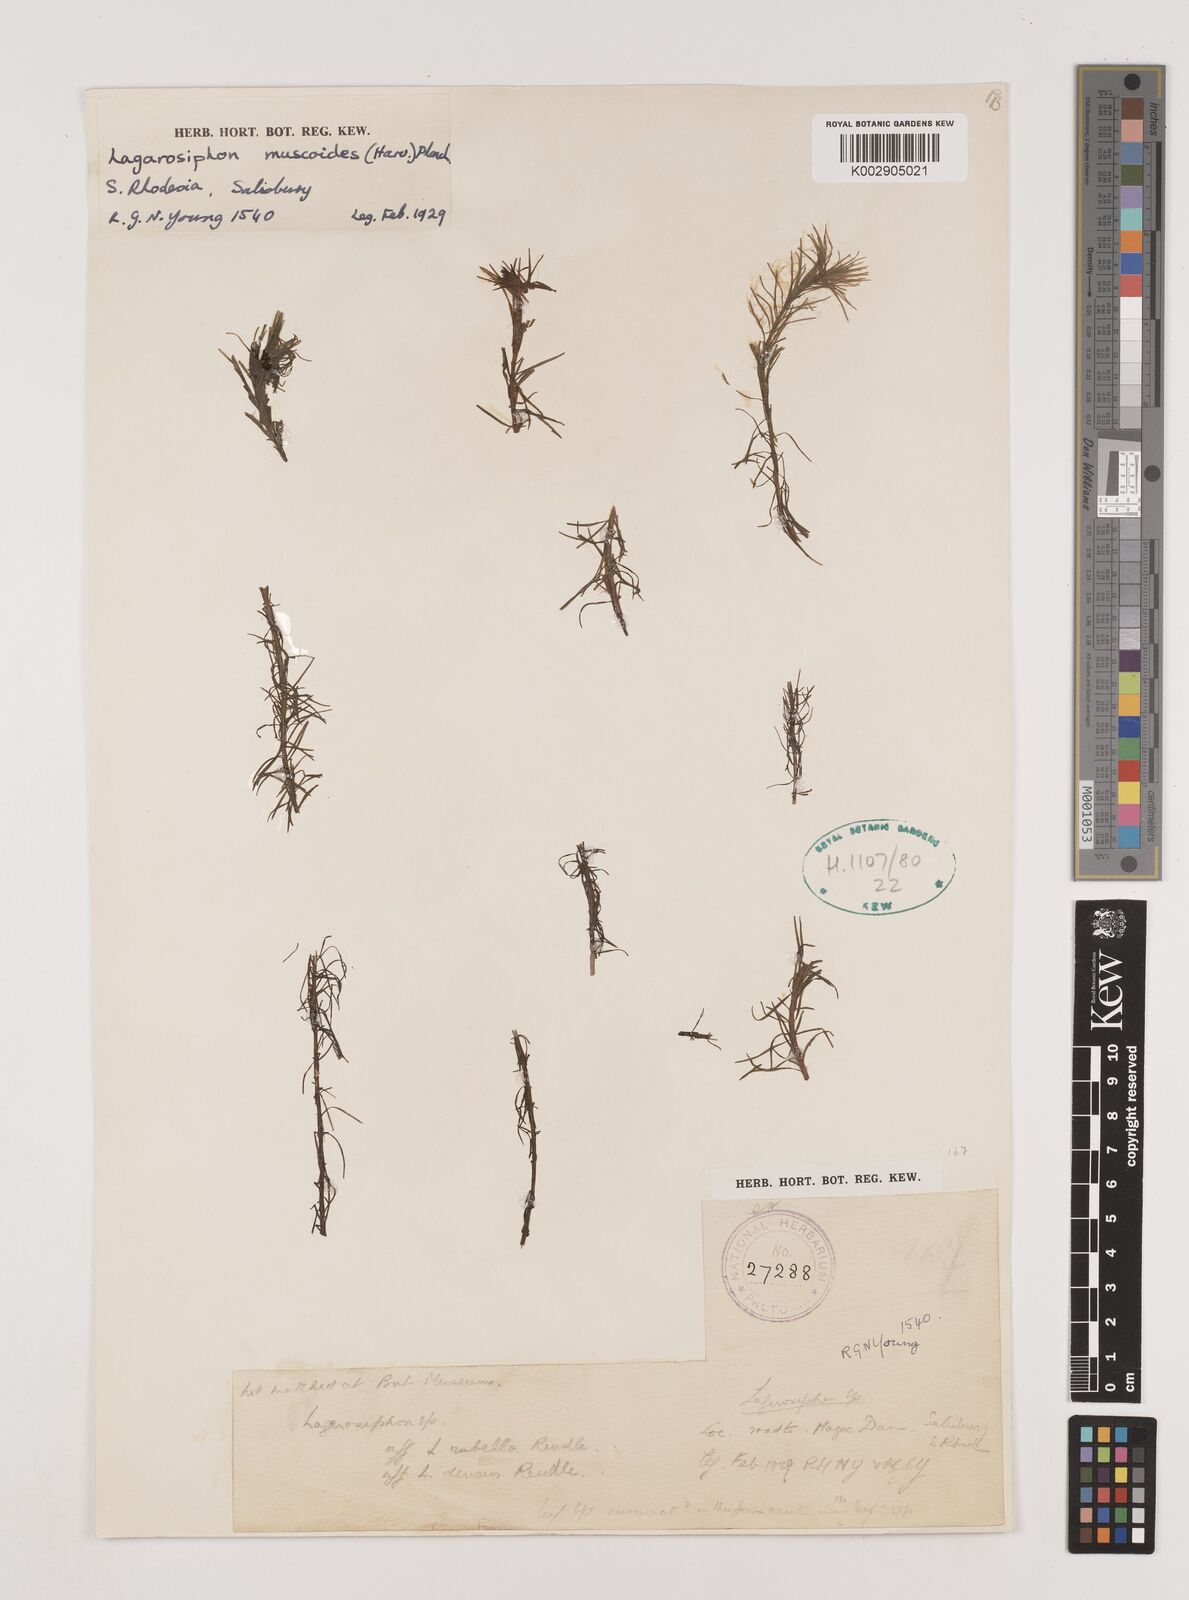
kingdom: Plantae
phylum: Tracheophyta
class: Liliopsida
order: Alismatales
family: Hydrocharitaceae
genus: Lagarosiphon
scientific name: Lagarosiphon muscoides
